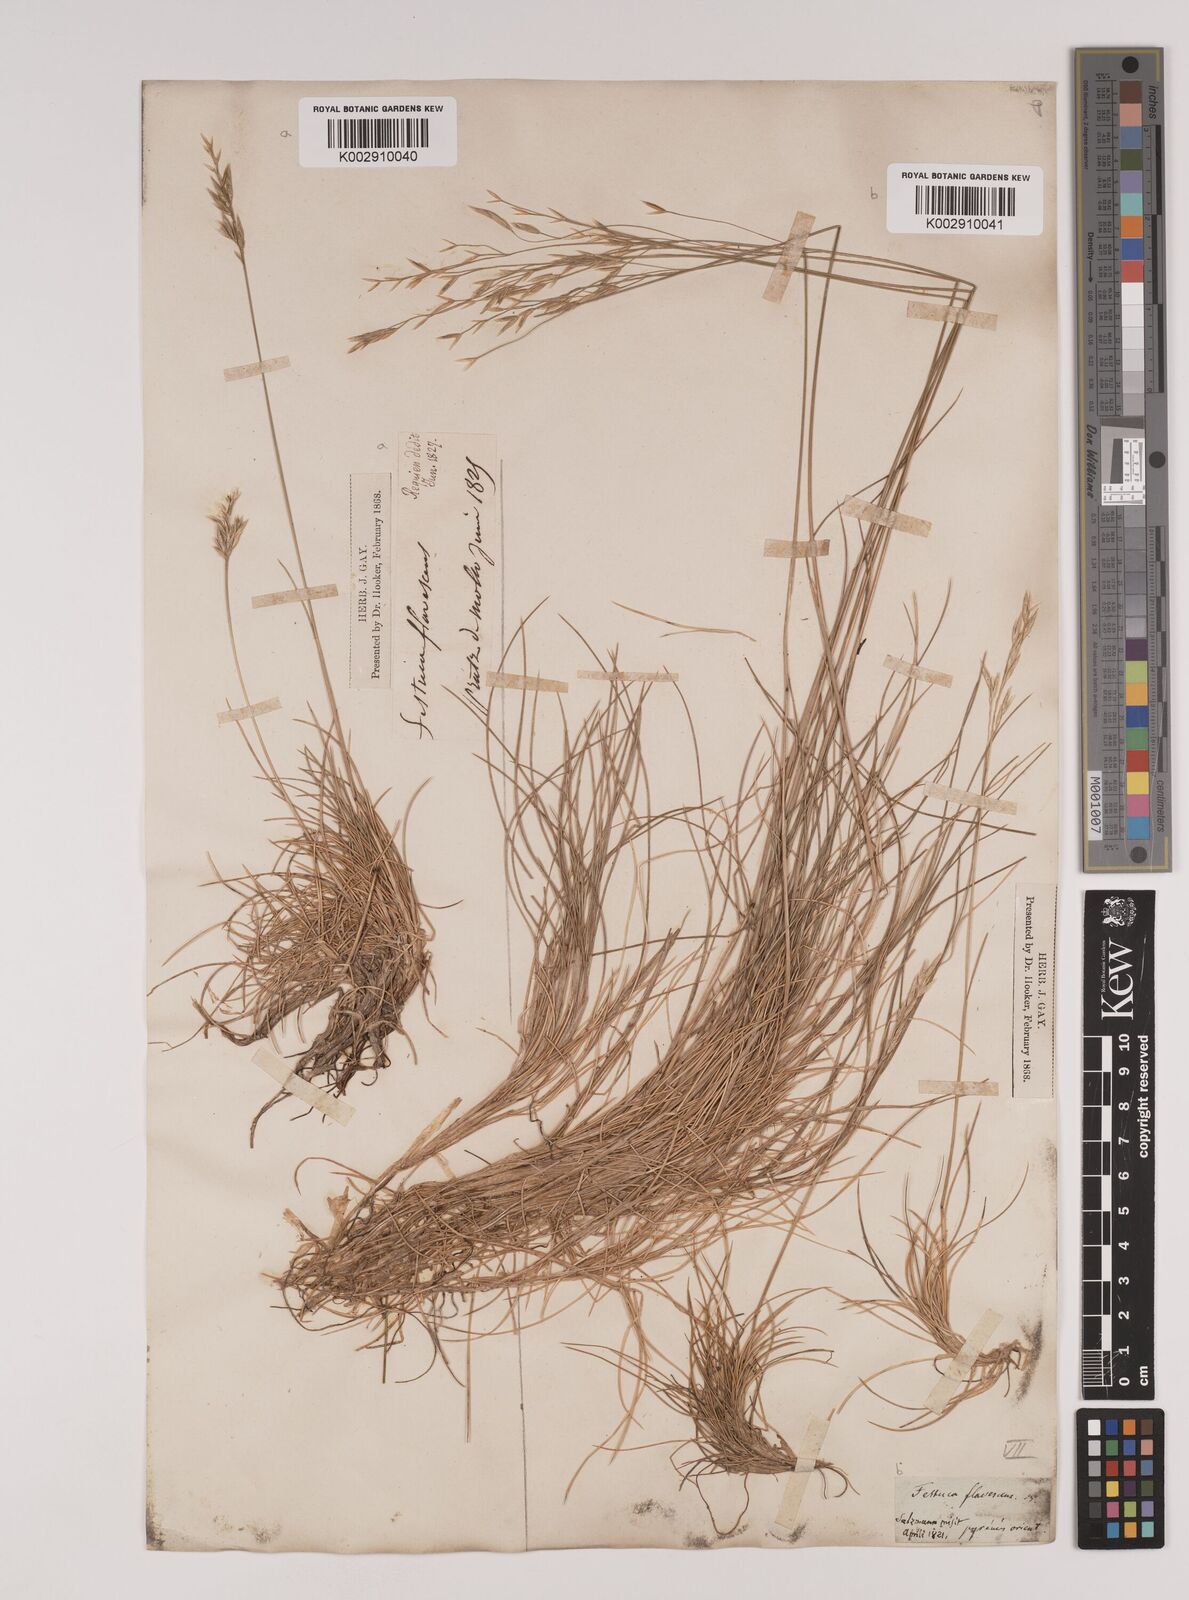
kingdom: Plantae
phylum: Tracheophyta
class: Liliopsida
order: Poales
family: Poaceae
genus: Festuca
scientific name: Festuca gautieri
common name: Spiky fescue
